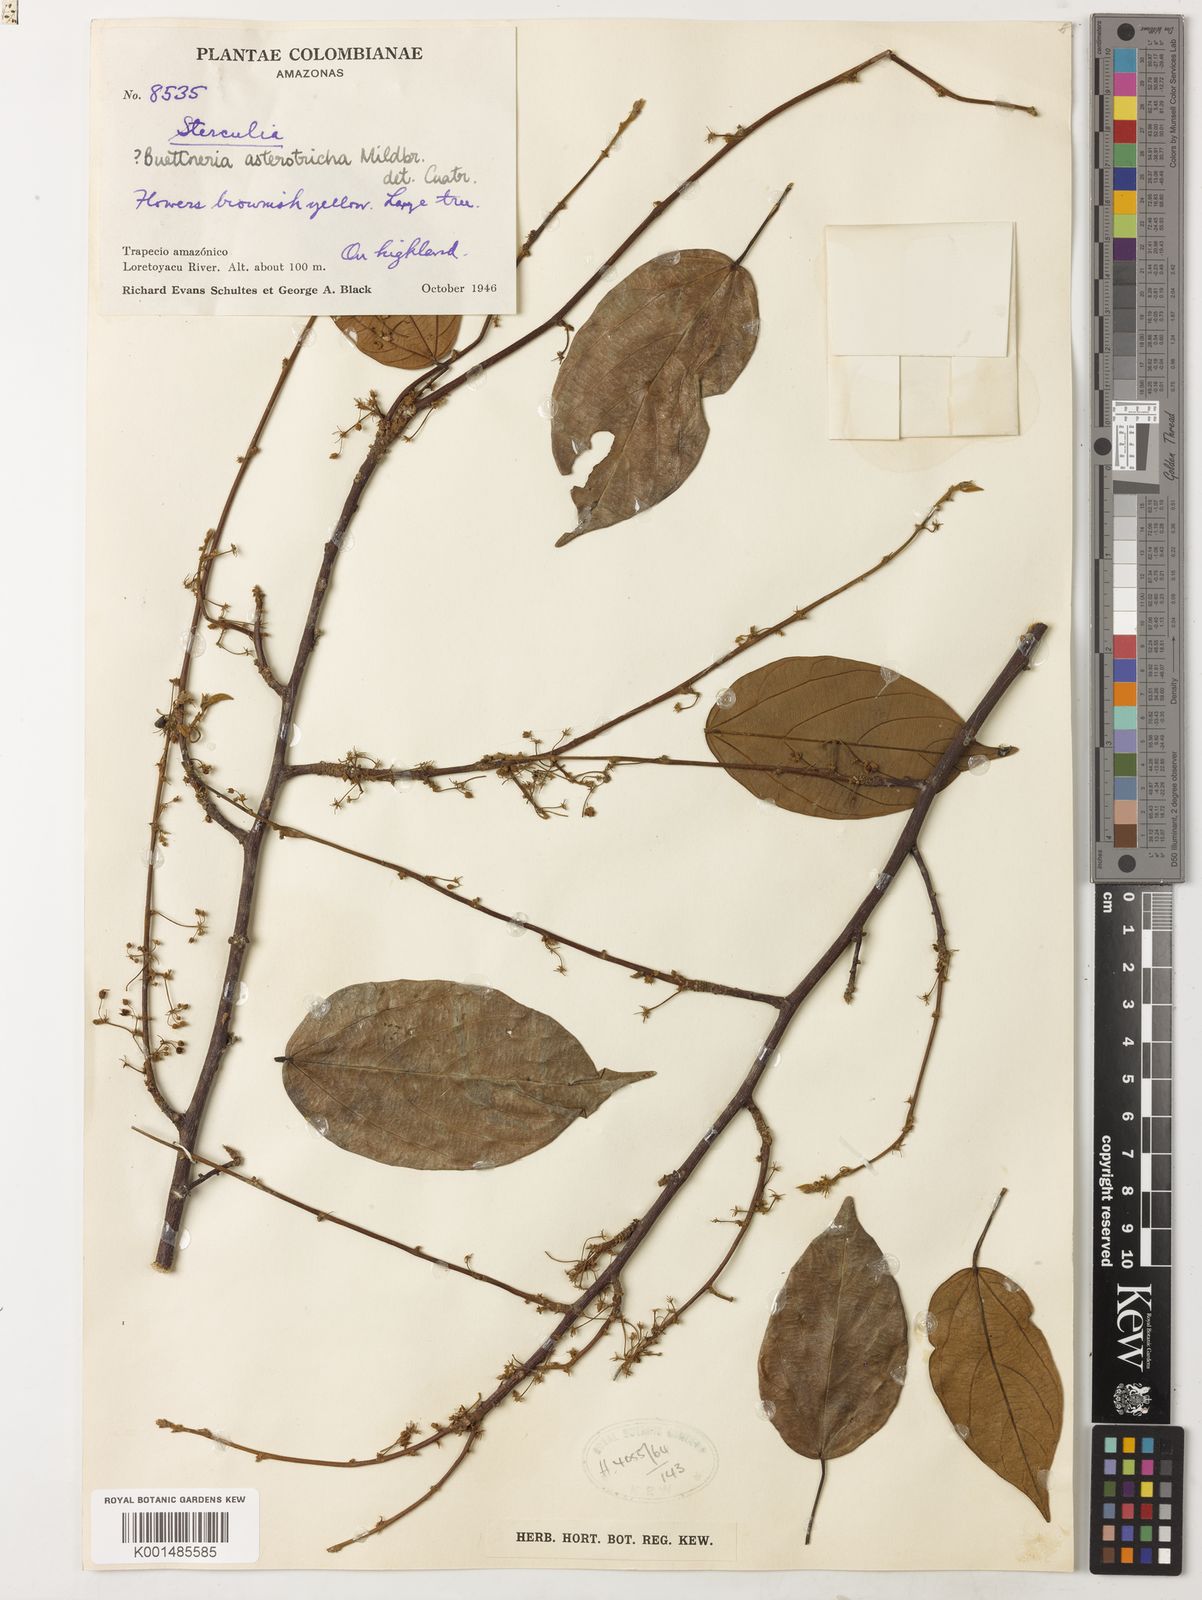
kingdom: Plantae
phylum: Tracheophyta
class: Magnoliopsida
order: Malvales
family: Malvaceae
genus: Byttneria
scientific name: Byttneria asterotricha
